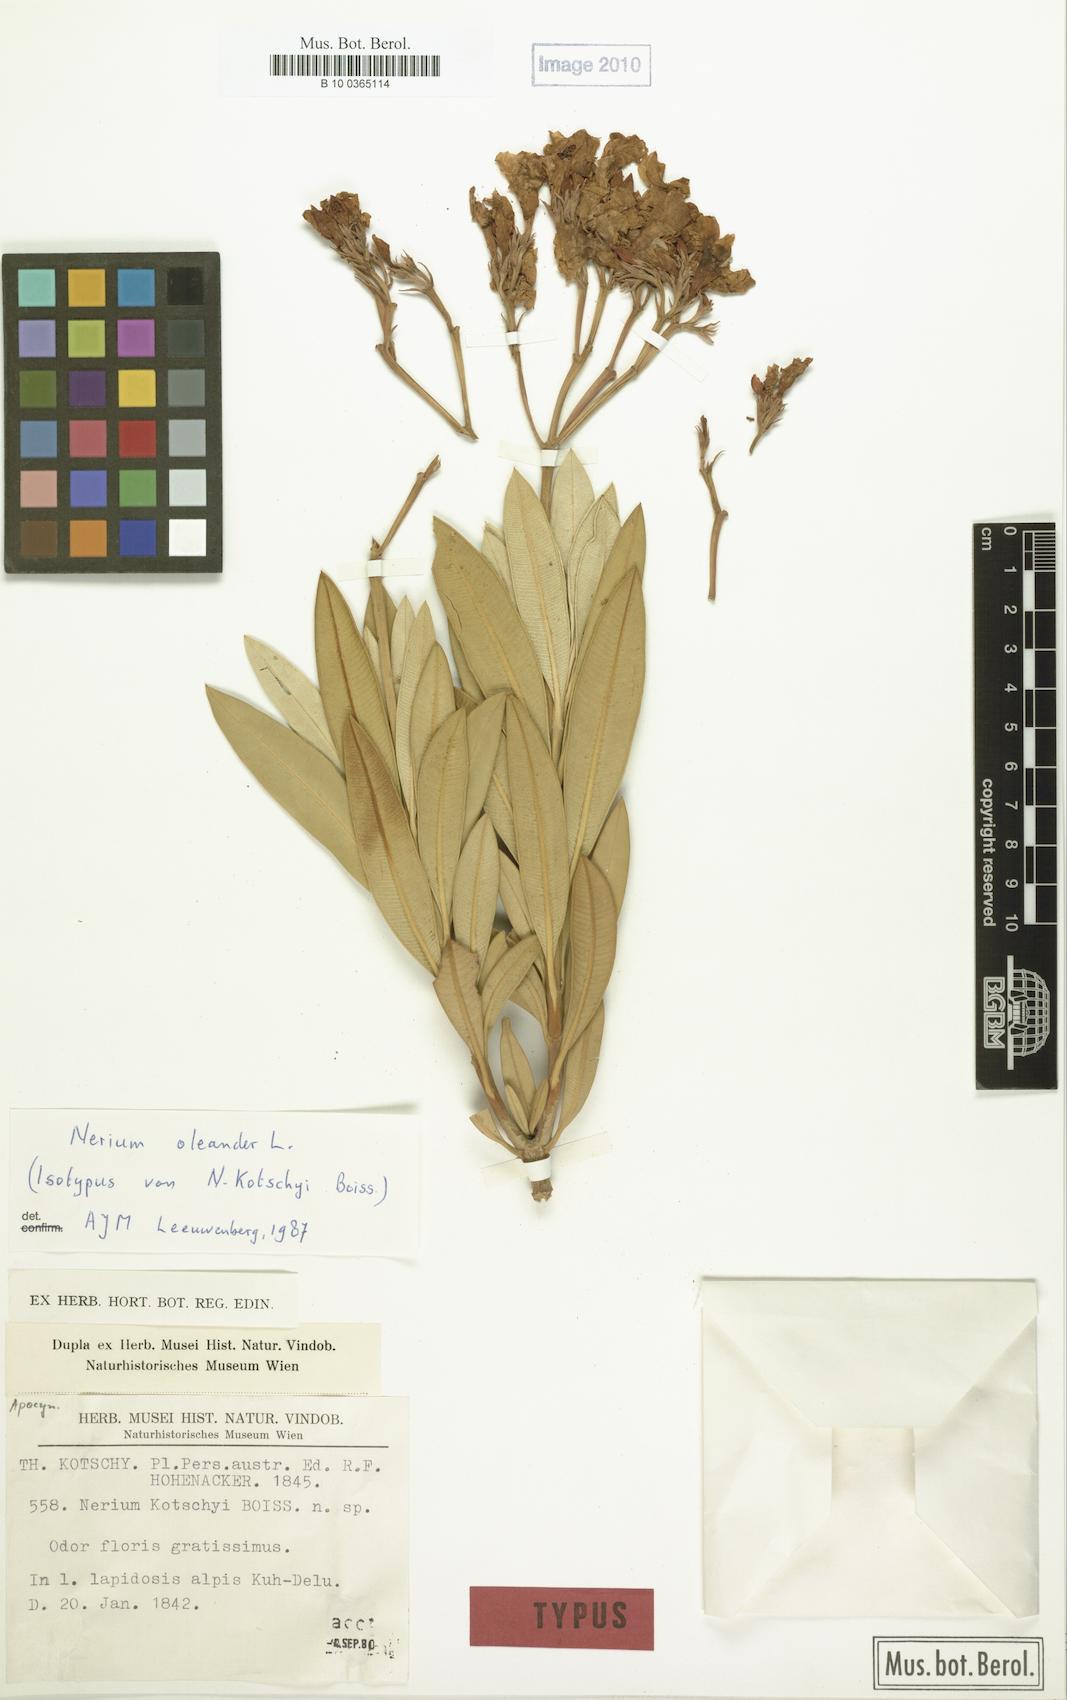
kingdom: Plantae
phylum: Tracheophyta
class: Magnoliopsida
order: Gentianales
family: Apocynaceae
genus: Nerium
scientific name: Nerium oleander
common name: Oleander
